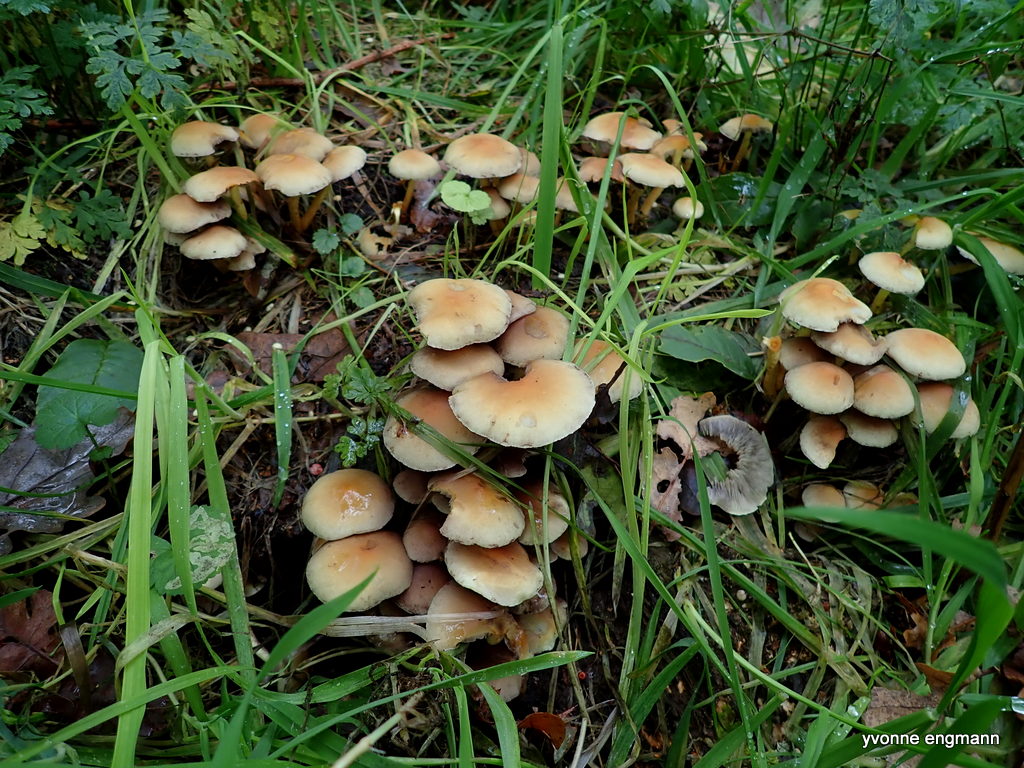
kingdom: Fungi
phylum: Basidiomycota
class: Agaricomycetes
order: Agaricales
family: Strophariaceae
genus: Hypholoma
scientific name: Hypholoma fasciculare
